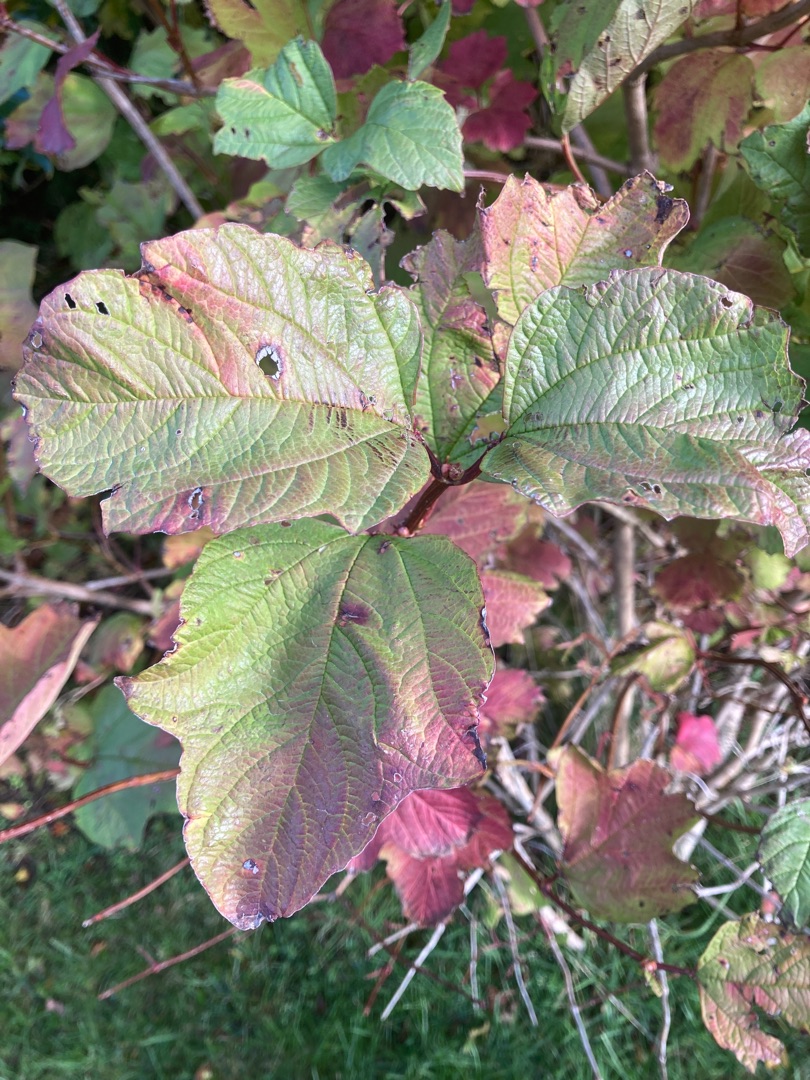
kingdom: Plantae
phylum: Tracheophyta
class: Magnoliopsida
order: Dipsacales
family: Viburnaceae
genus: Viburnum
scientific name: Viburnum opulus
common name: Kvalkved
